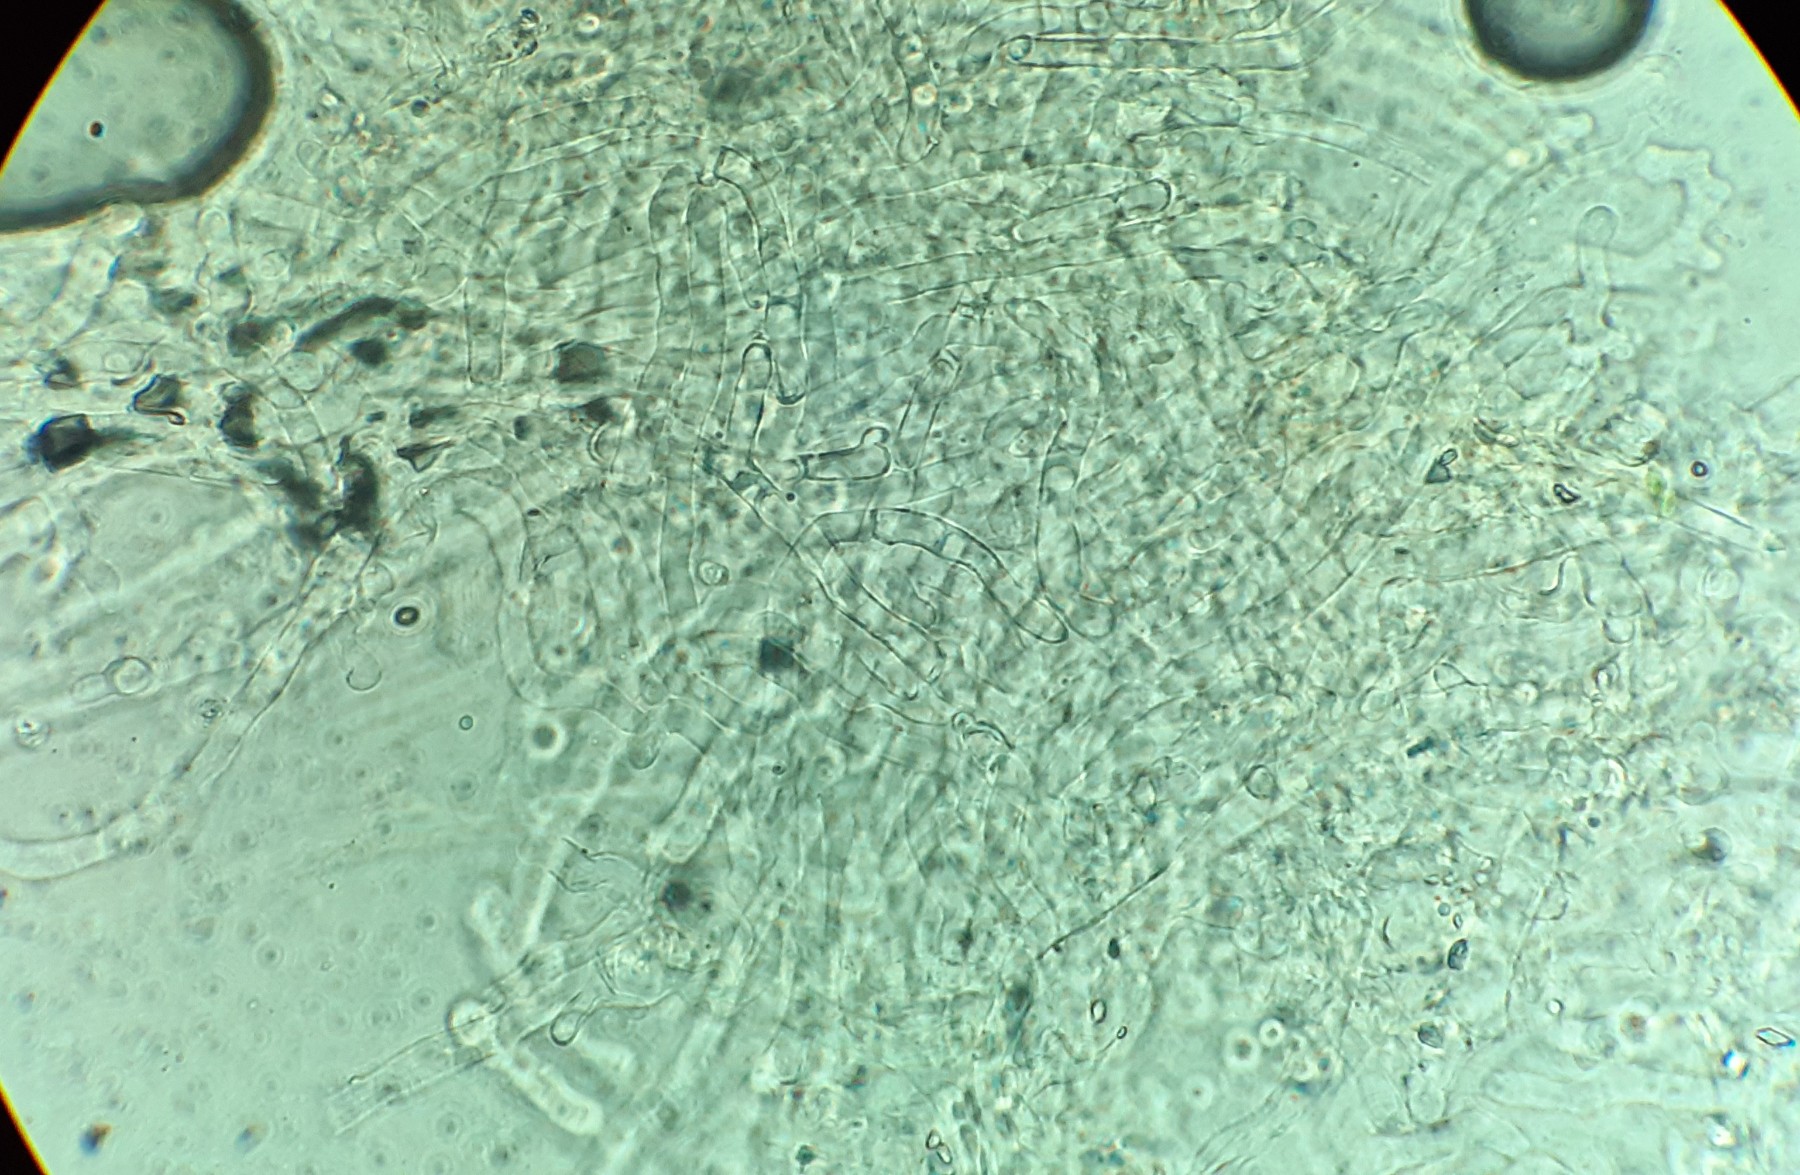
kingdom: Fungi
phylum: Basidiomycota
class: Agaricomycetes
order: Agaricales
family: Tricholomataceae
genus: Rimbachia
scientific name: Rimbachia arachnoidea
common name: Almindelig mosskål
